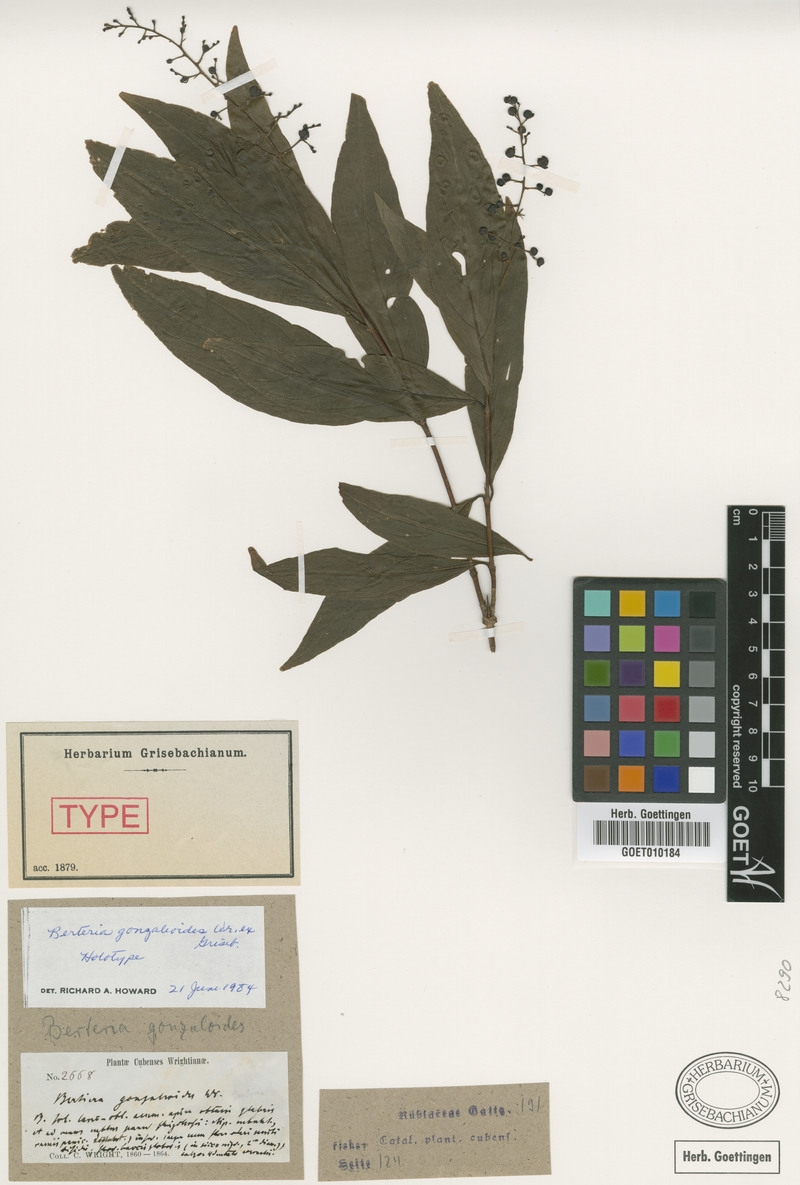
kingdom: Plantae
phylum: Tracheophyta
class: Magnoliopsida
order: Gentianales
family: Rubiaceae
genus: Bertiera
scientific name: Bertiera gonzaleoides
